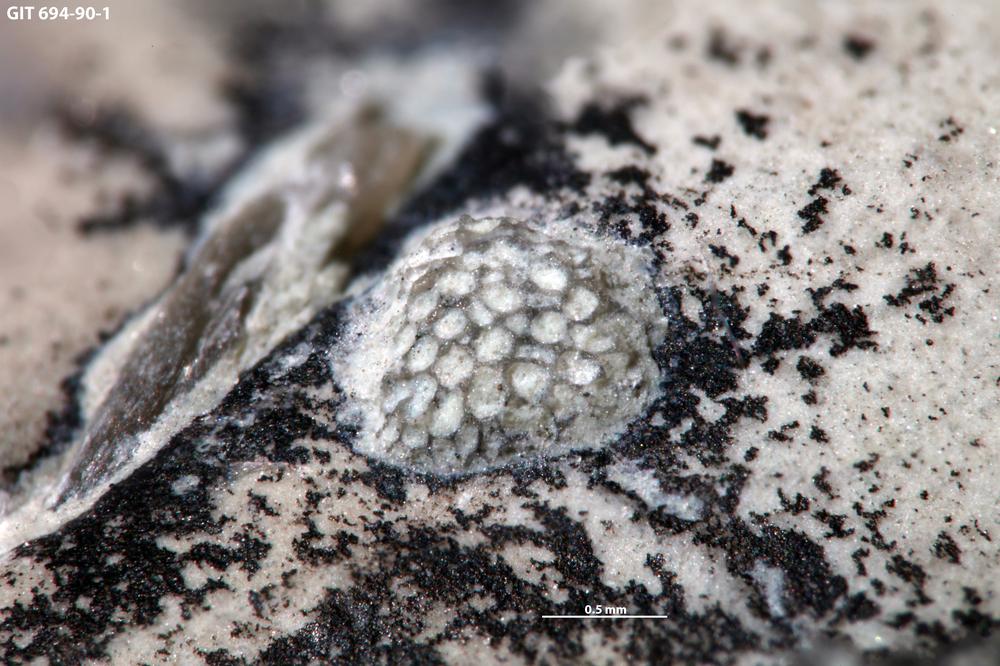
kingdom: Animalia
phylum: Bryozoa
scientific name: Bryozoa
